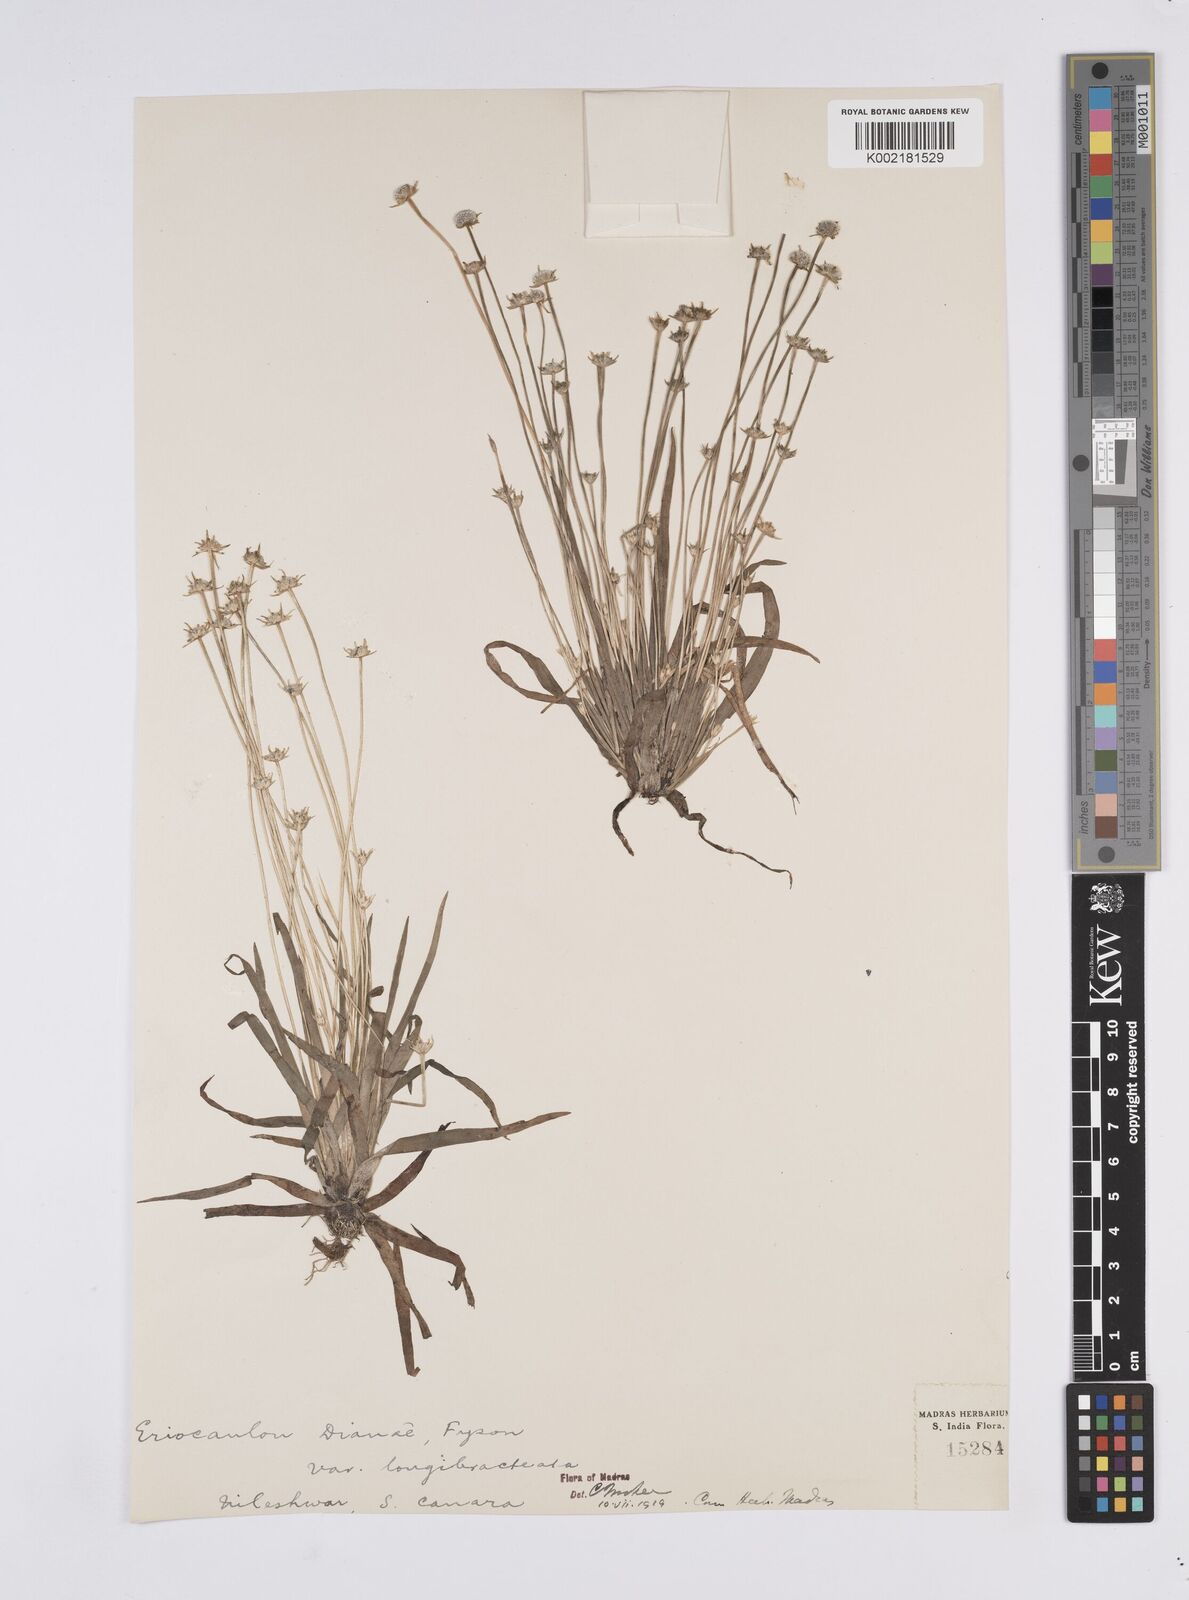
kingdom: Plantae
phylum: Tracheophyta
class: Liliopsida
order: Poales
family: Eriocaulaceae
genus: Eriocaulon
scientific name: Eriocaulon heterolepis
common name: Buttonhead pipewort
